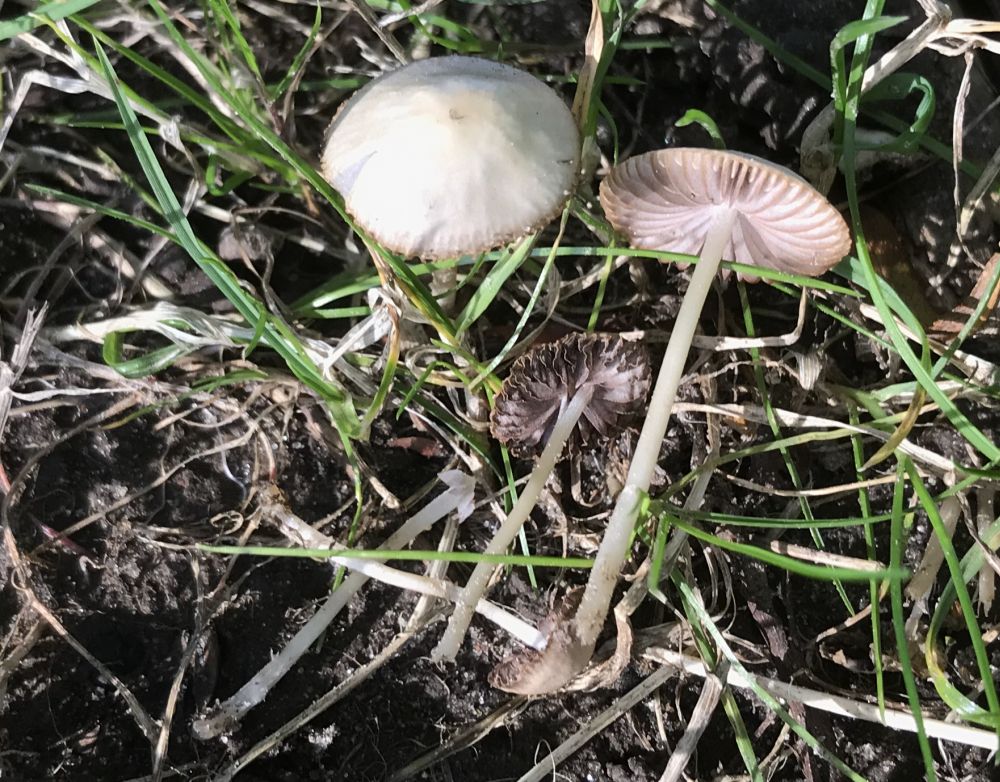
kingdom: Fungi
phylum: Basidiomycota
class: Agaricomycetes
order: Agaricales
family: Psathyrellaceae
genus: Psathyrella
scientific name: Psathyrella
